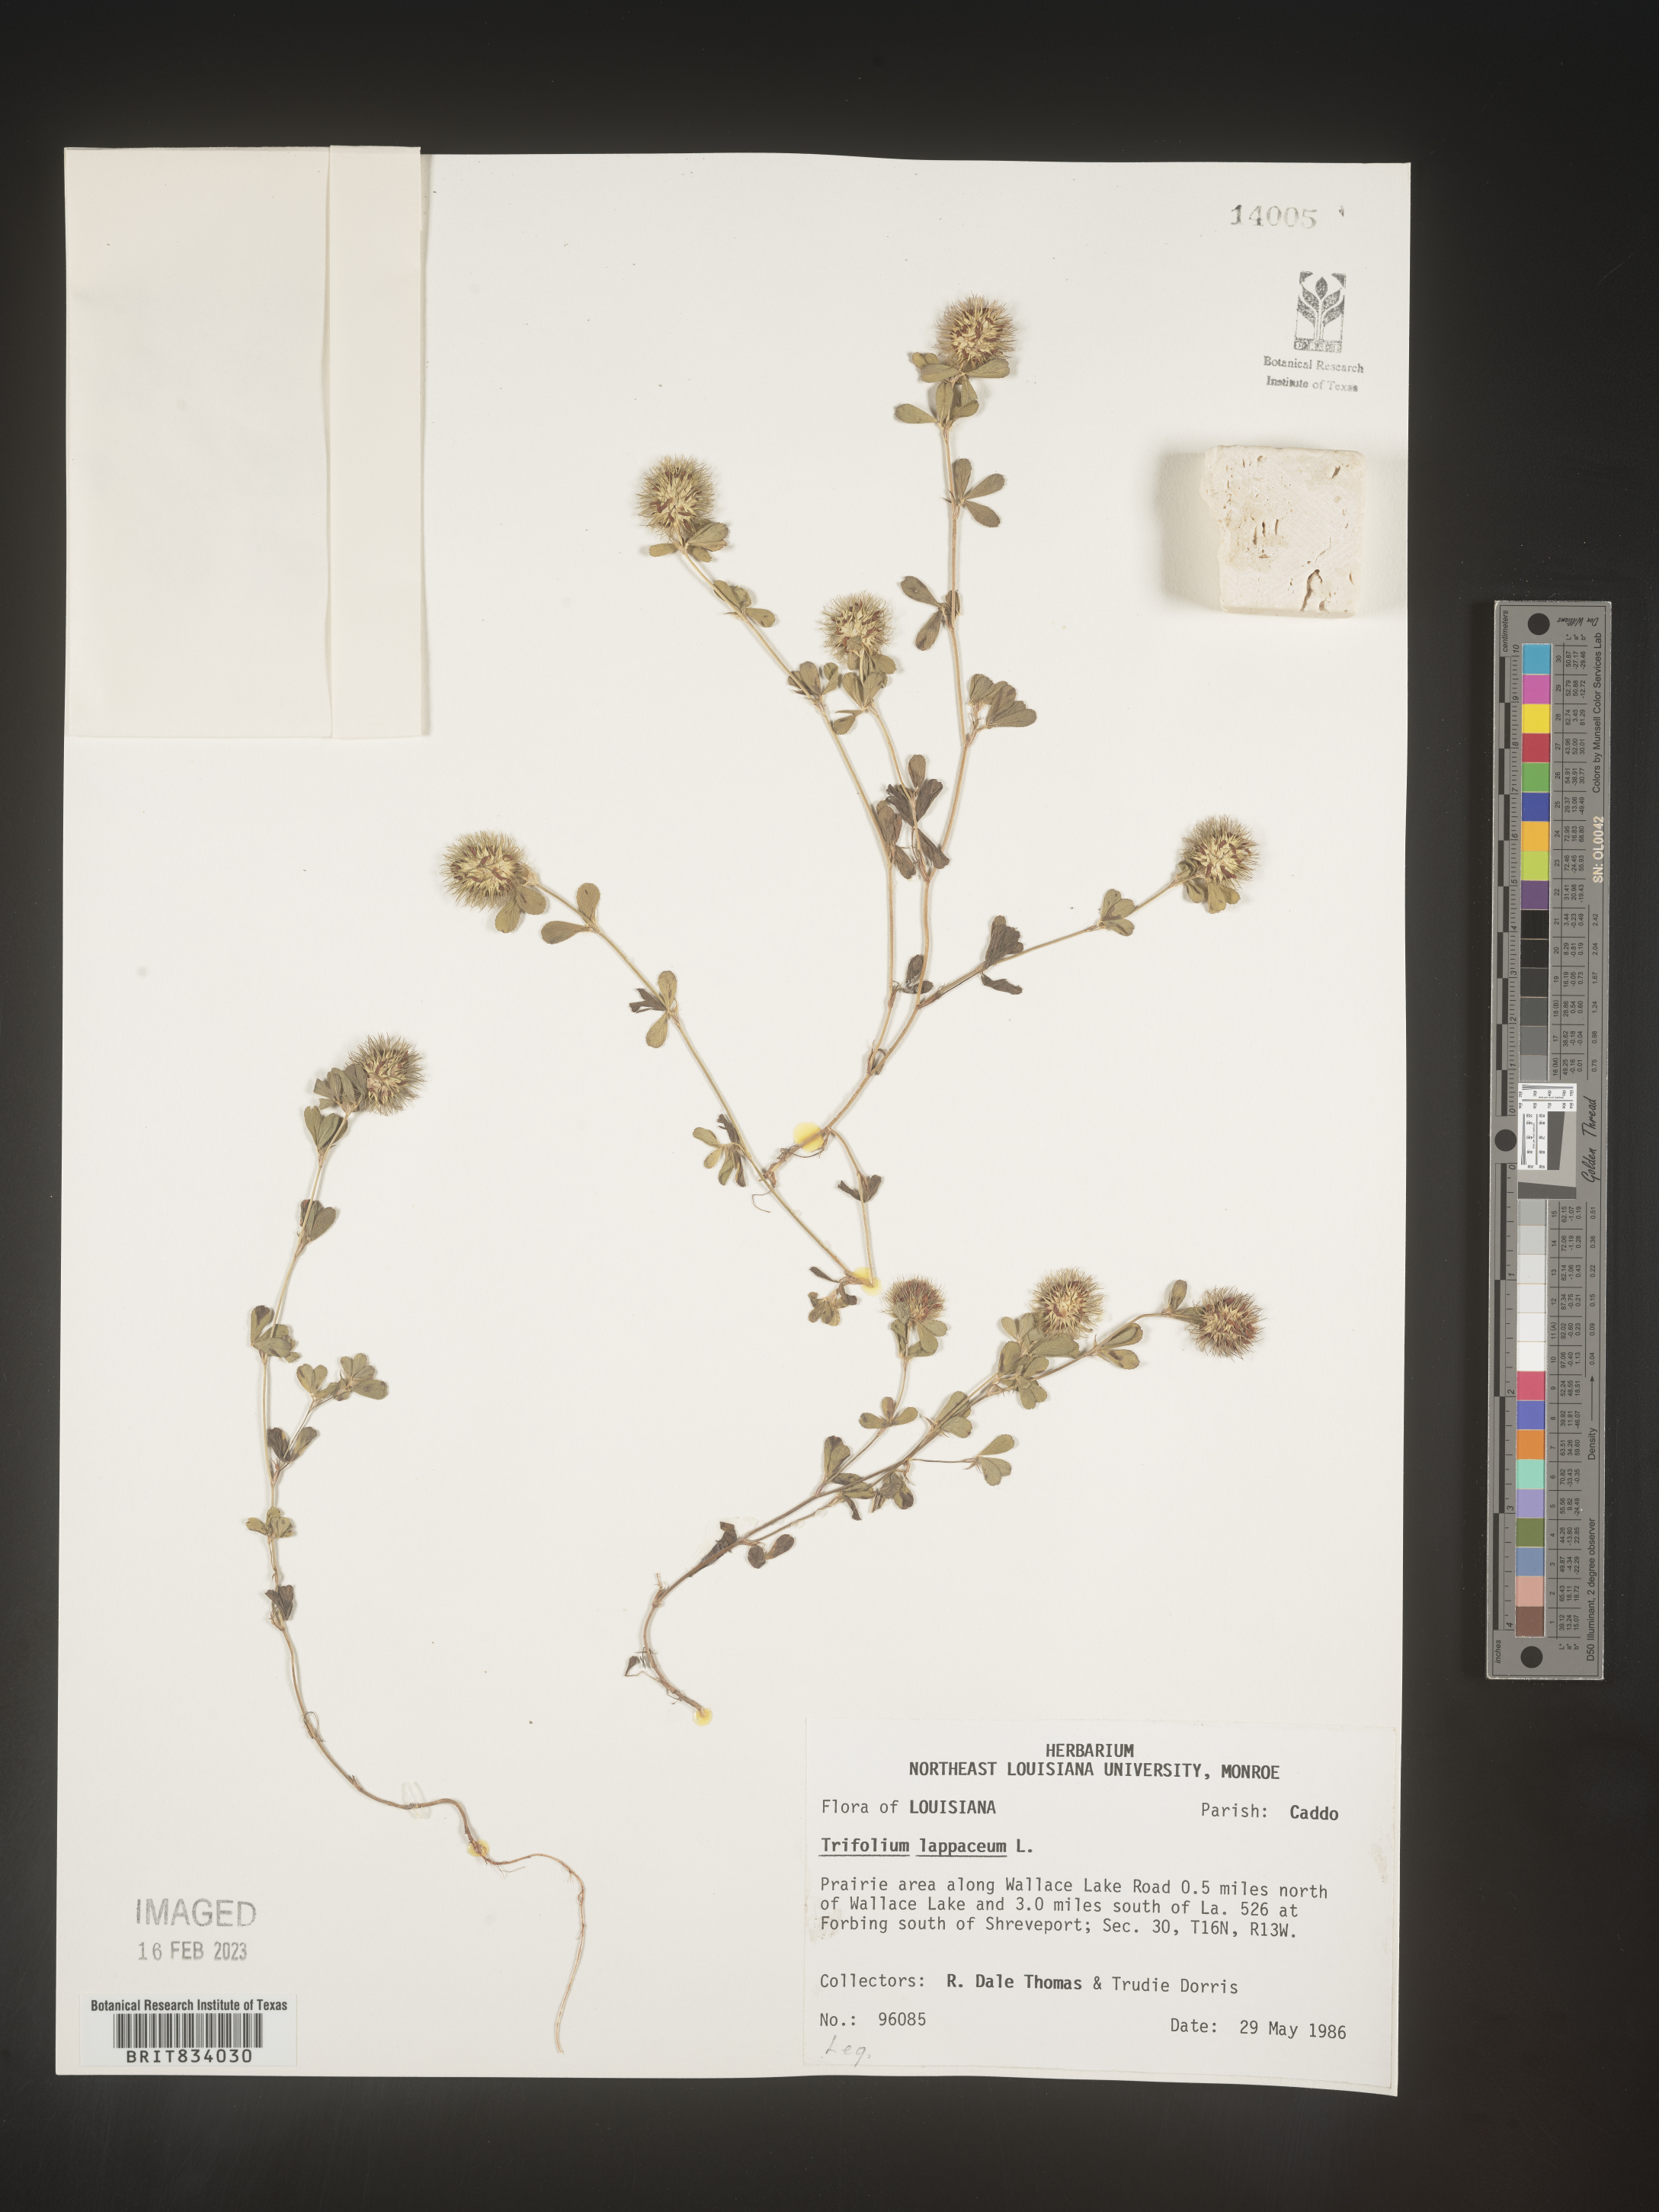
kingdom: Plantae
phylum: Tracheophyta
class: Magnoliopsida
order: Fabales
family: Fabaceae
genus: Trifolium
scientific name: Trifolium
